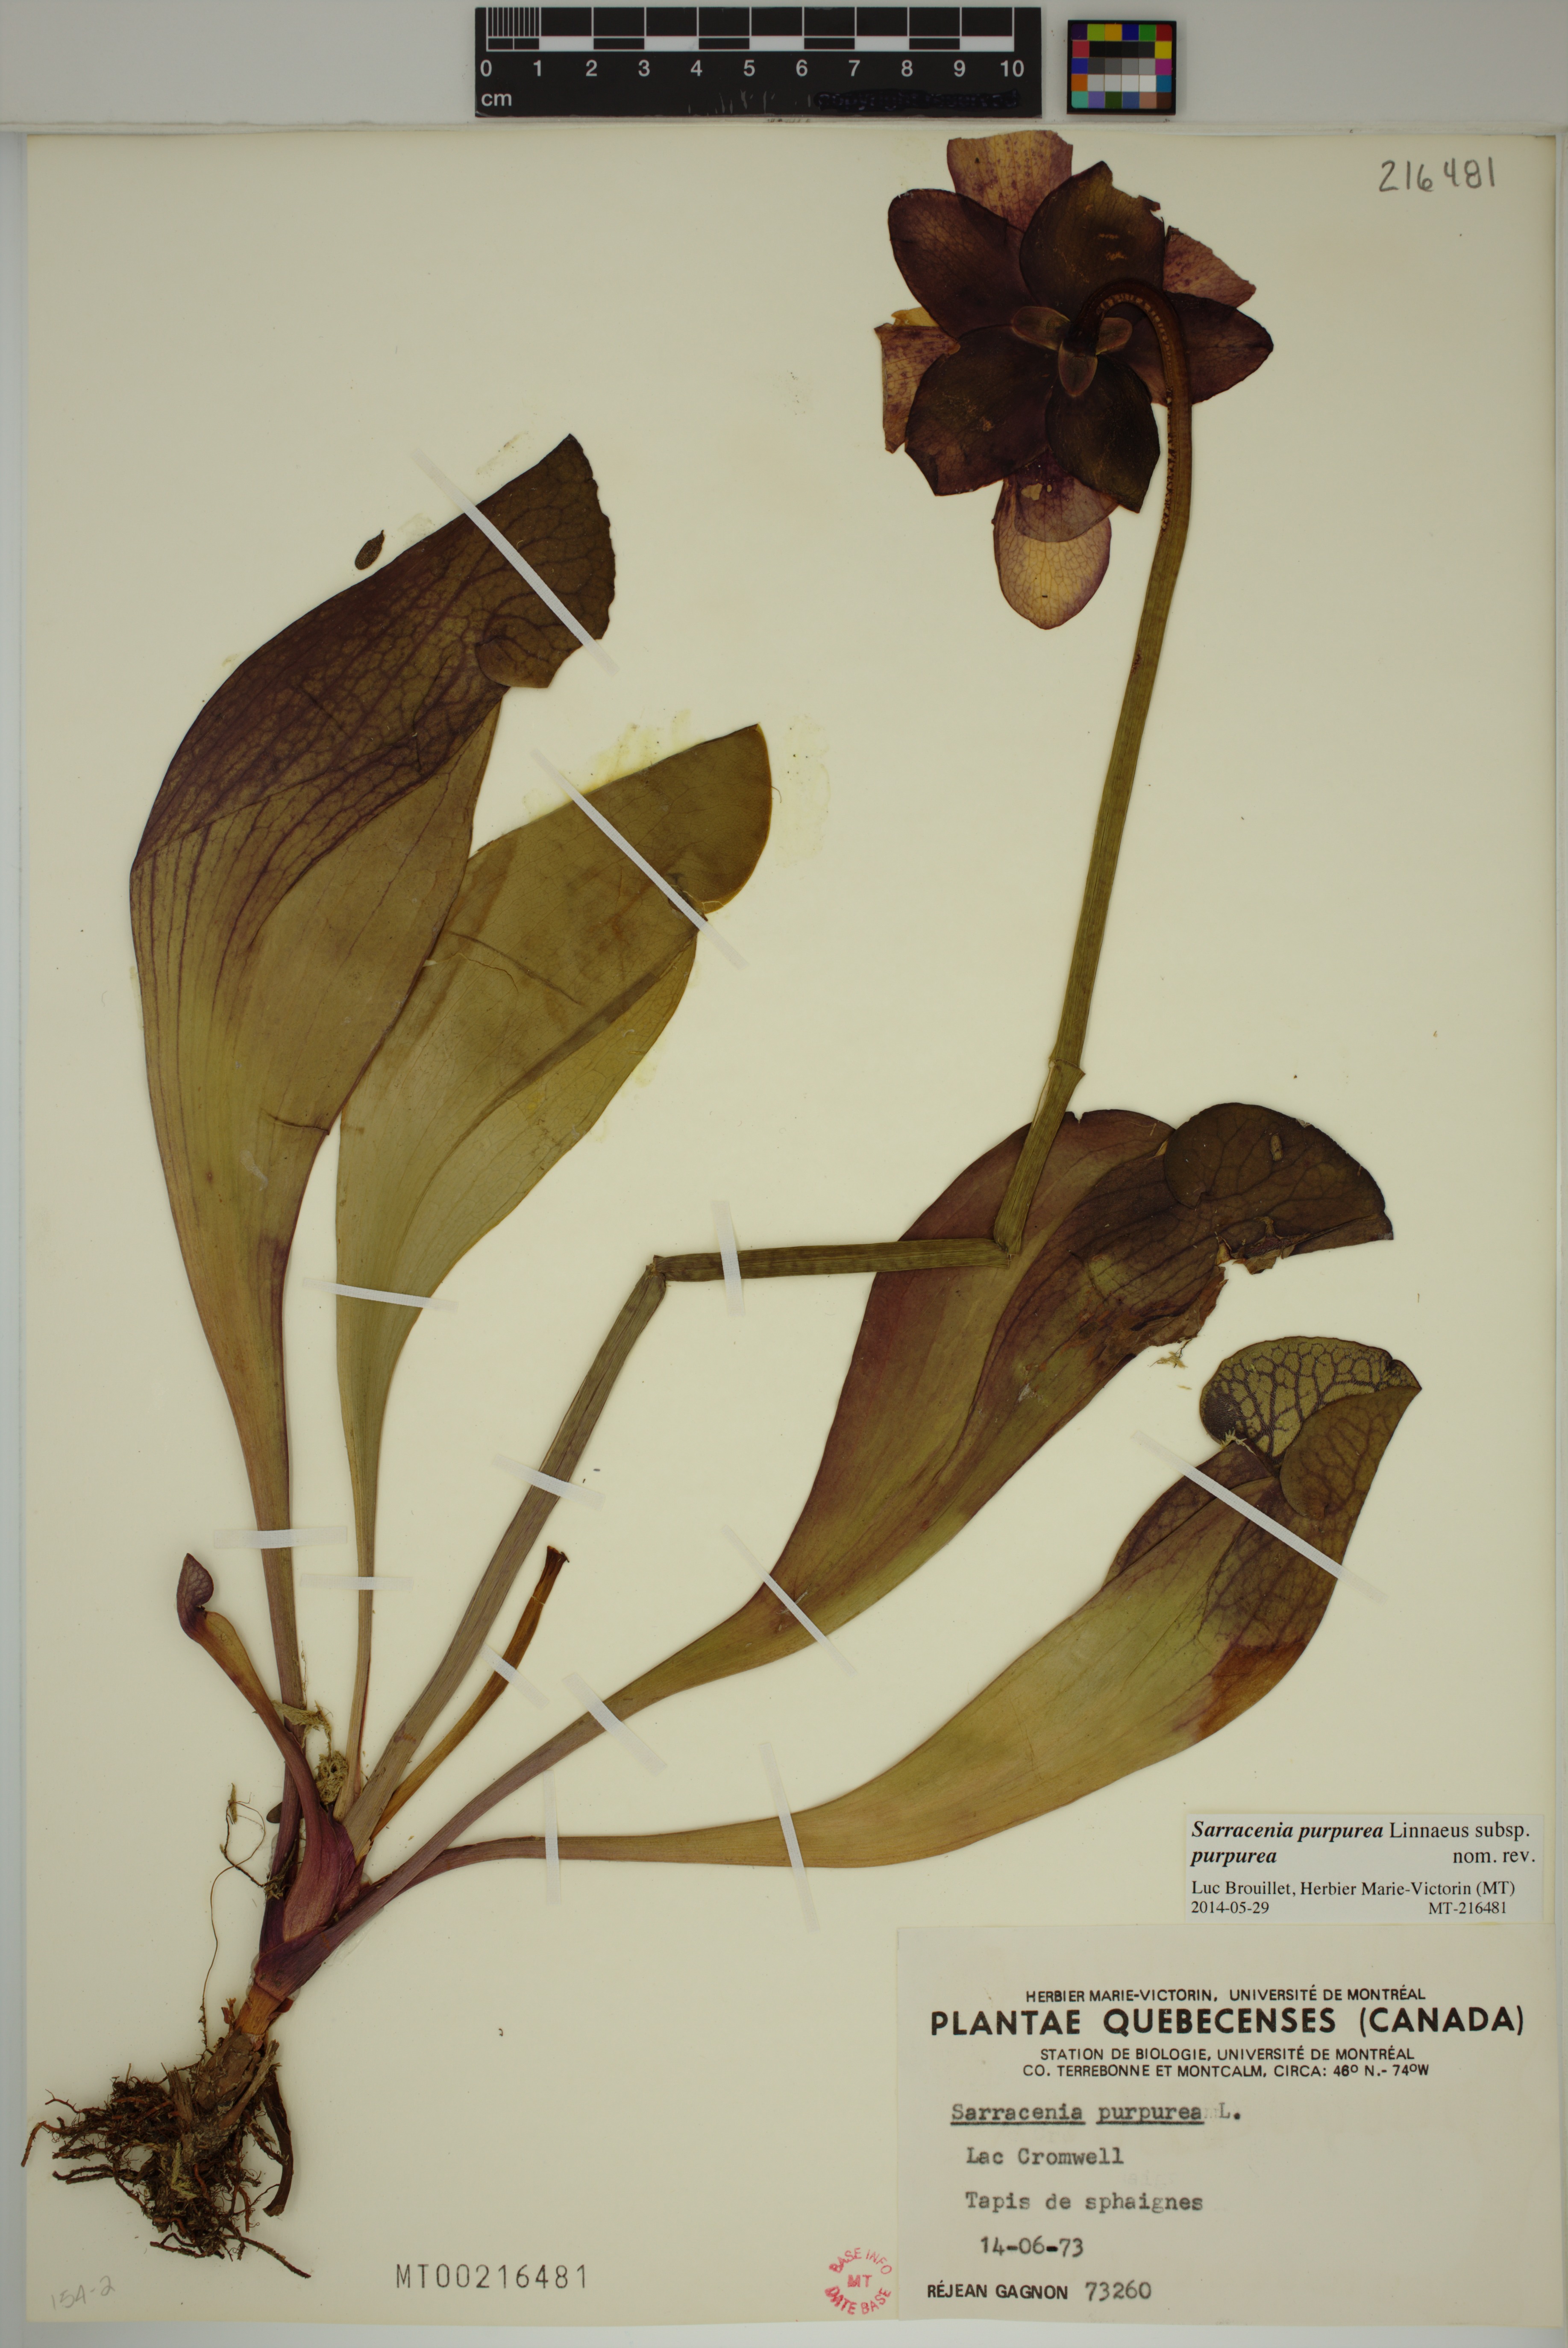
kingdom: Plantae
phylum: Tracheophyta
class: Magnoliopsida
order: Ericales
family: Sarraceniaceae
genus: Sarracenia
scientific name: Sarracenia purpurea
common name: Pitcherplant
